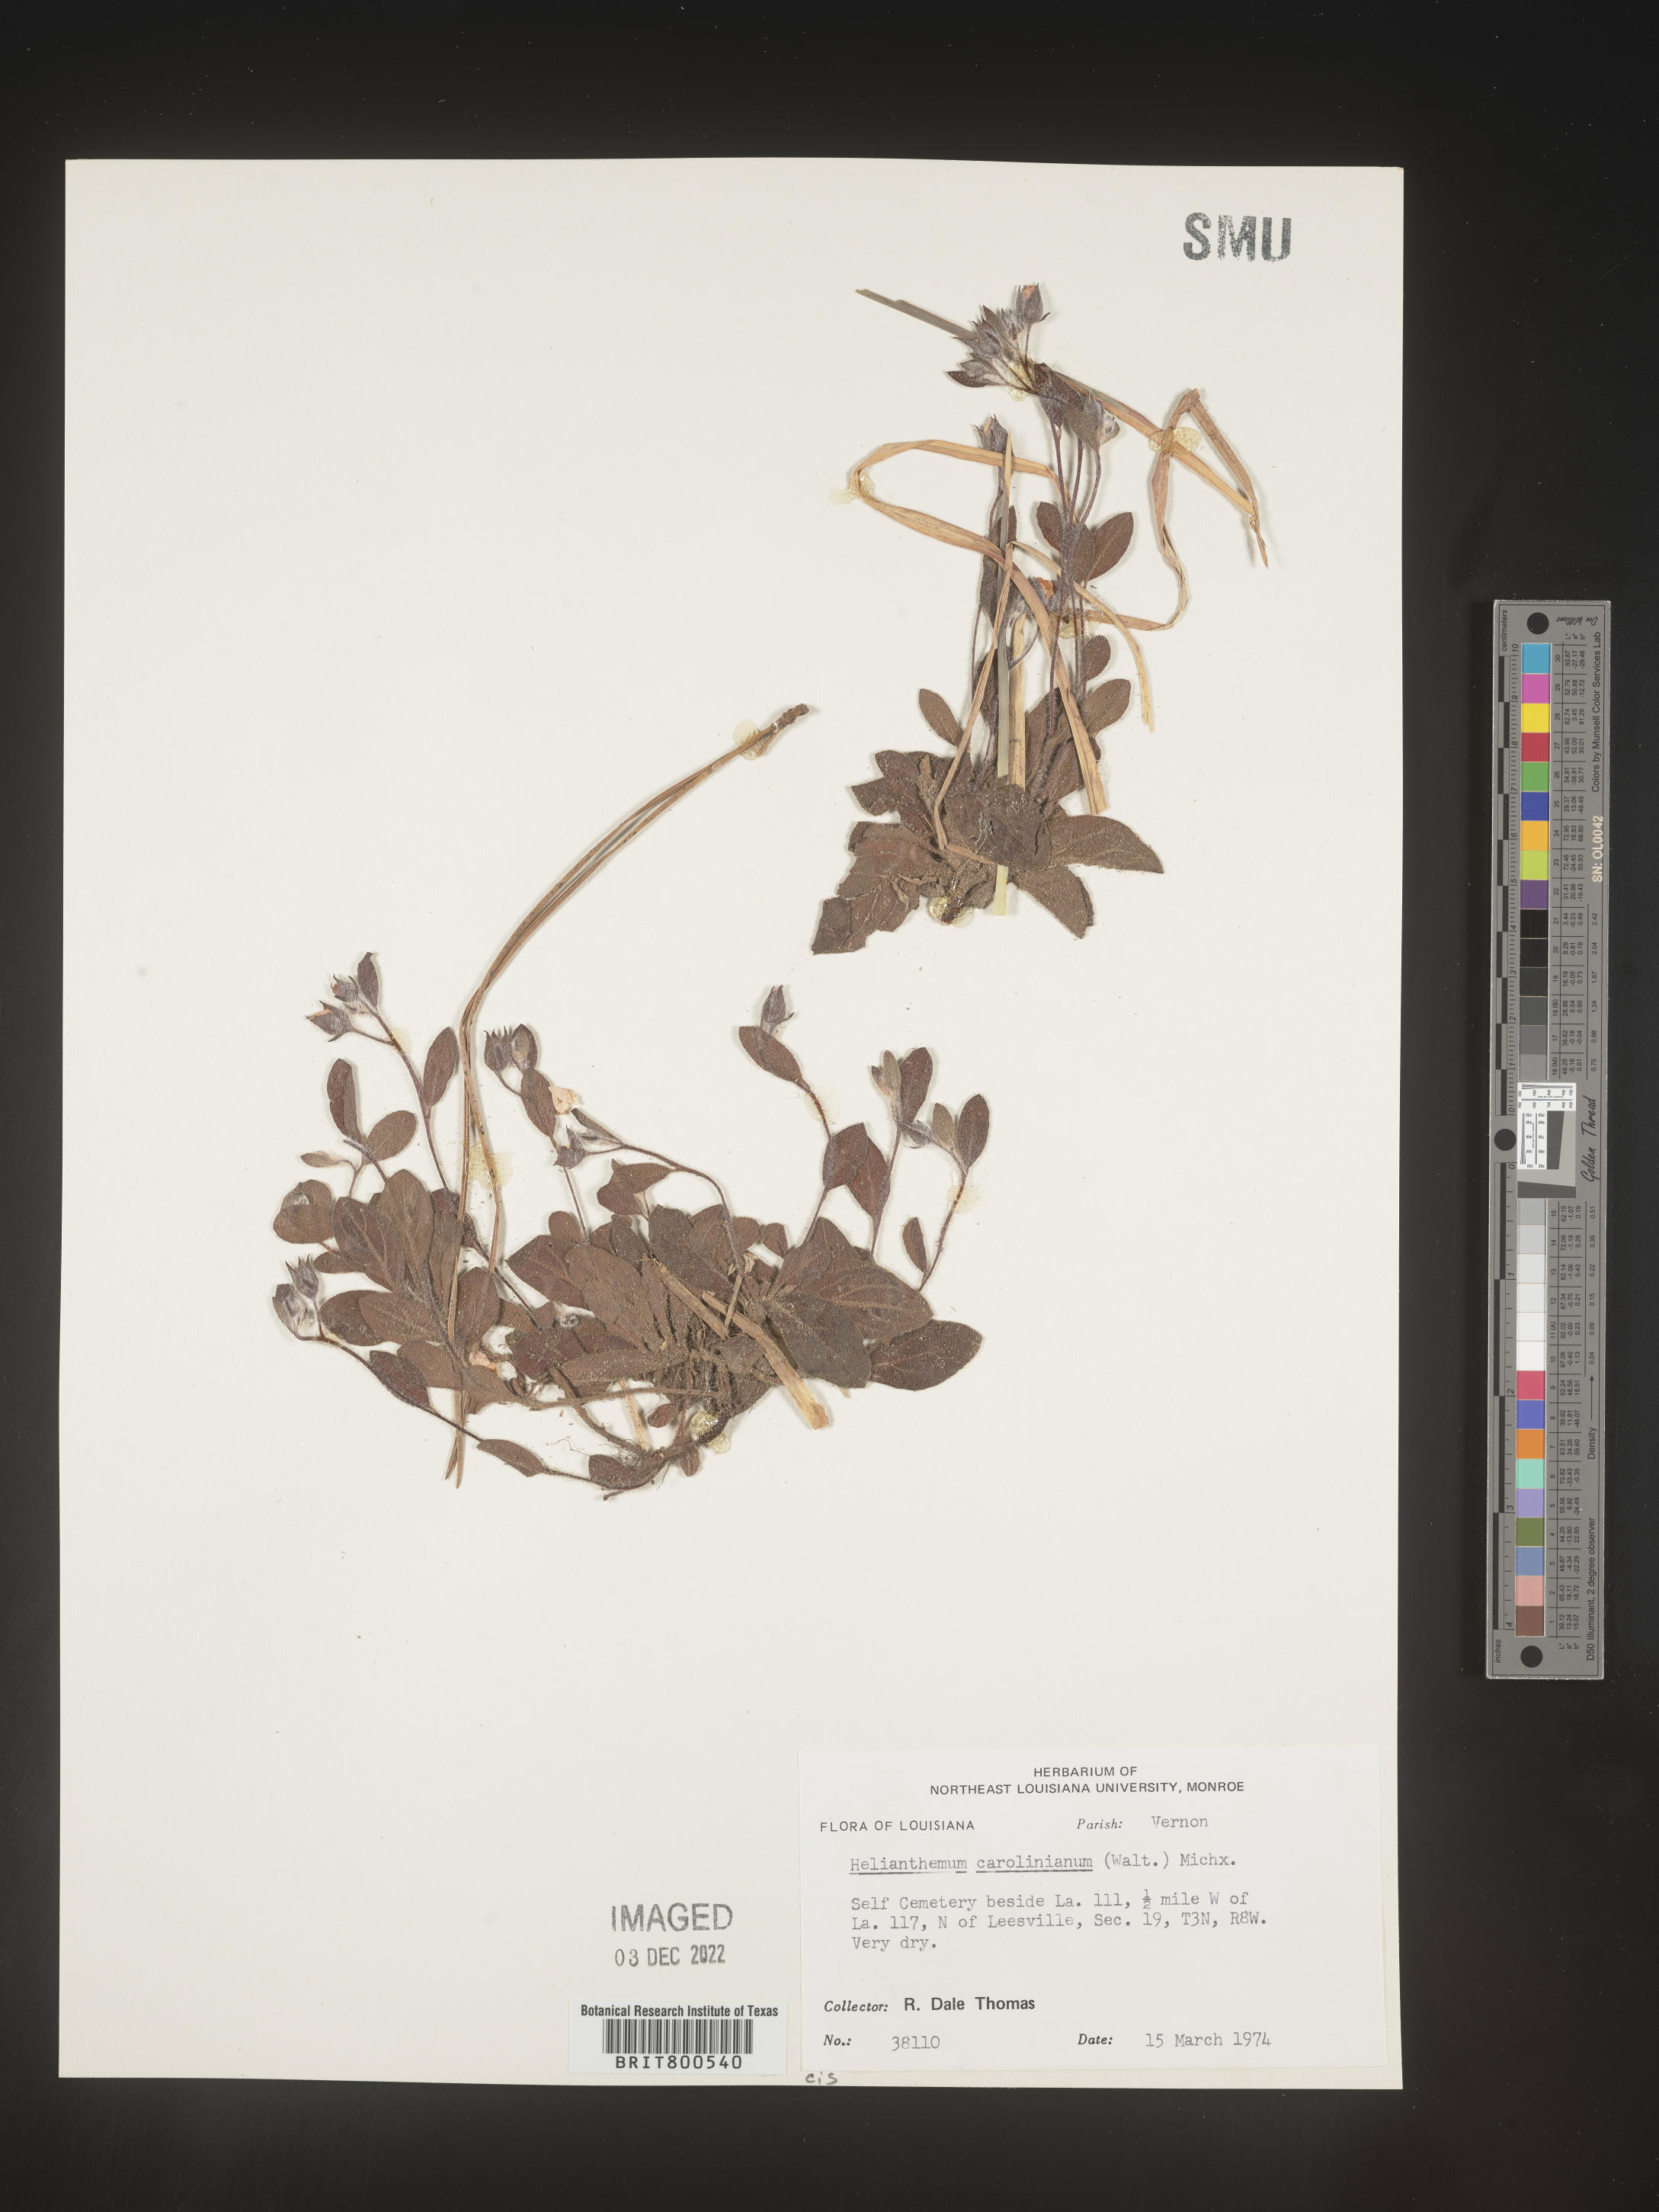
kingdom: Plantae
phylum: Tracheophyta
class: Magnoliopsida
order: Malvales
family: Cistaceae
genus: Crocanthemum
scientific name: Crocanthemum carolinianum
